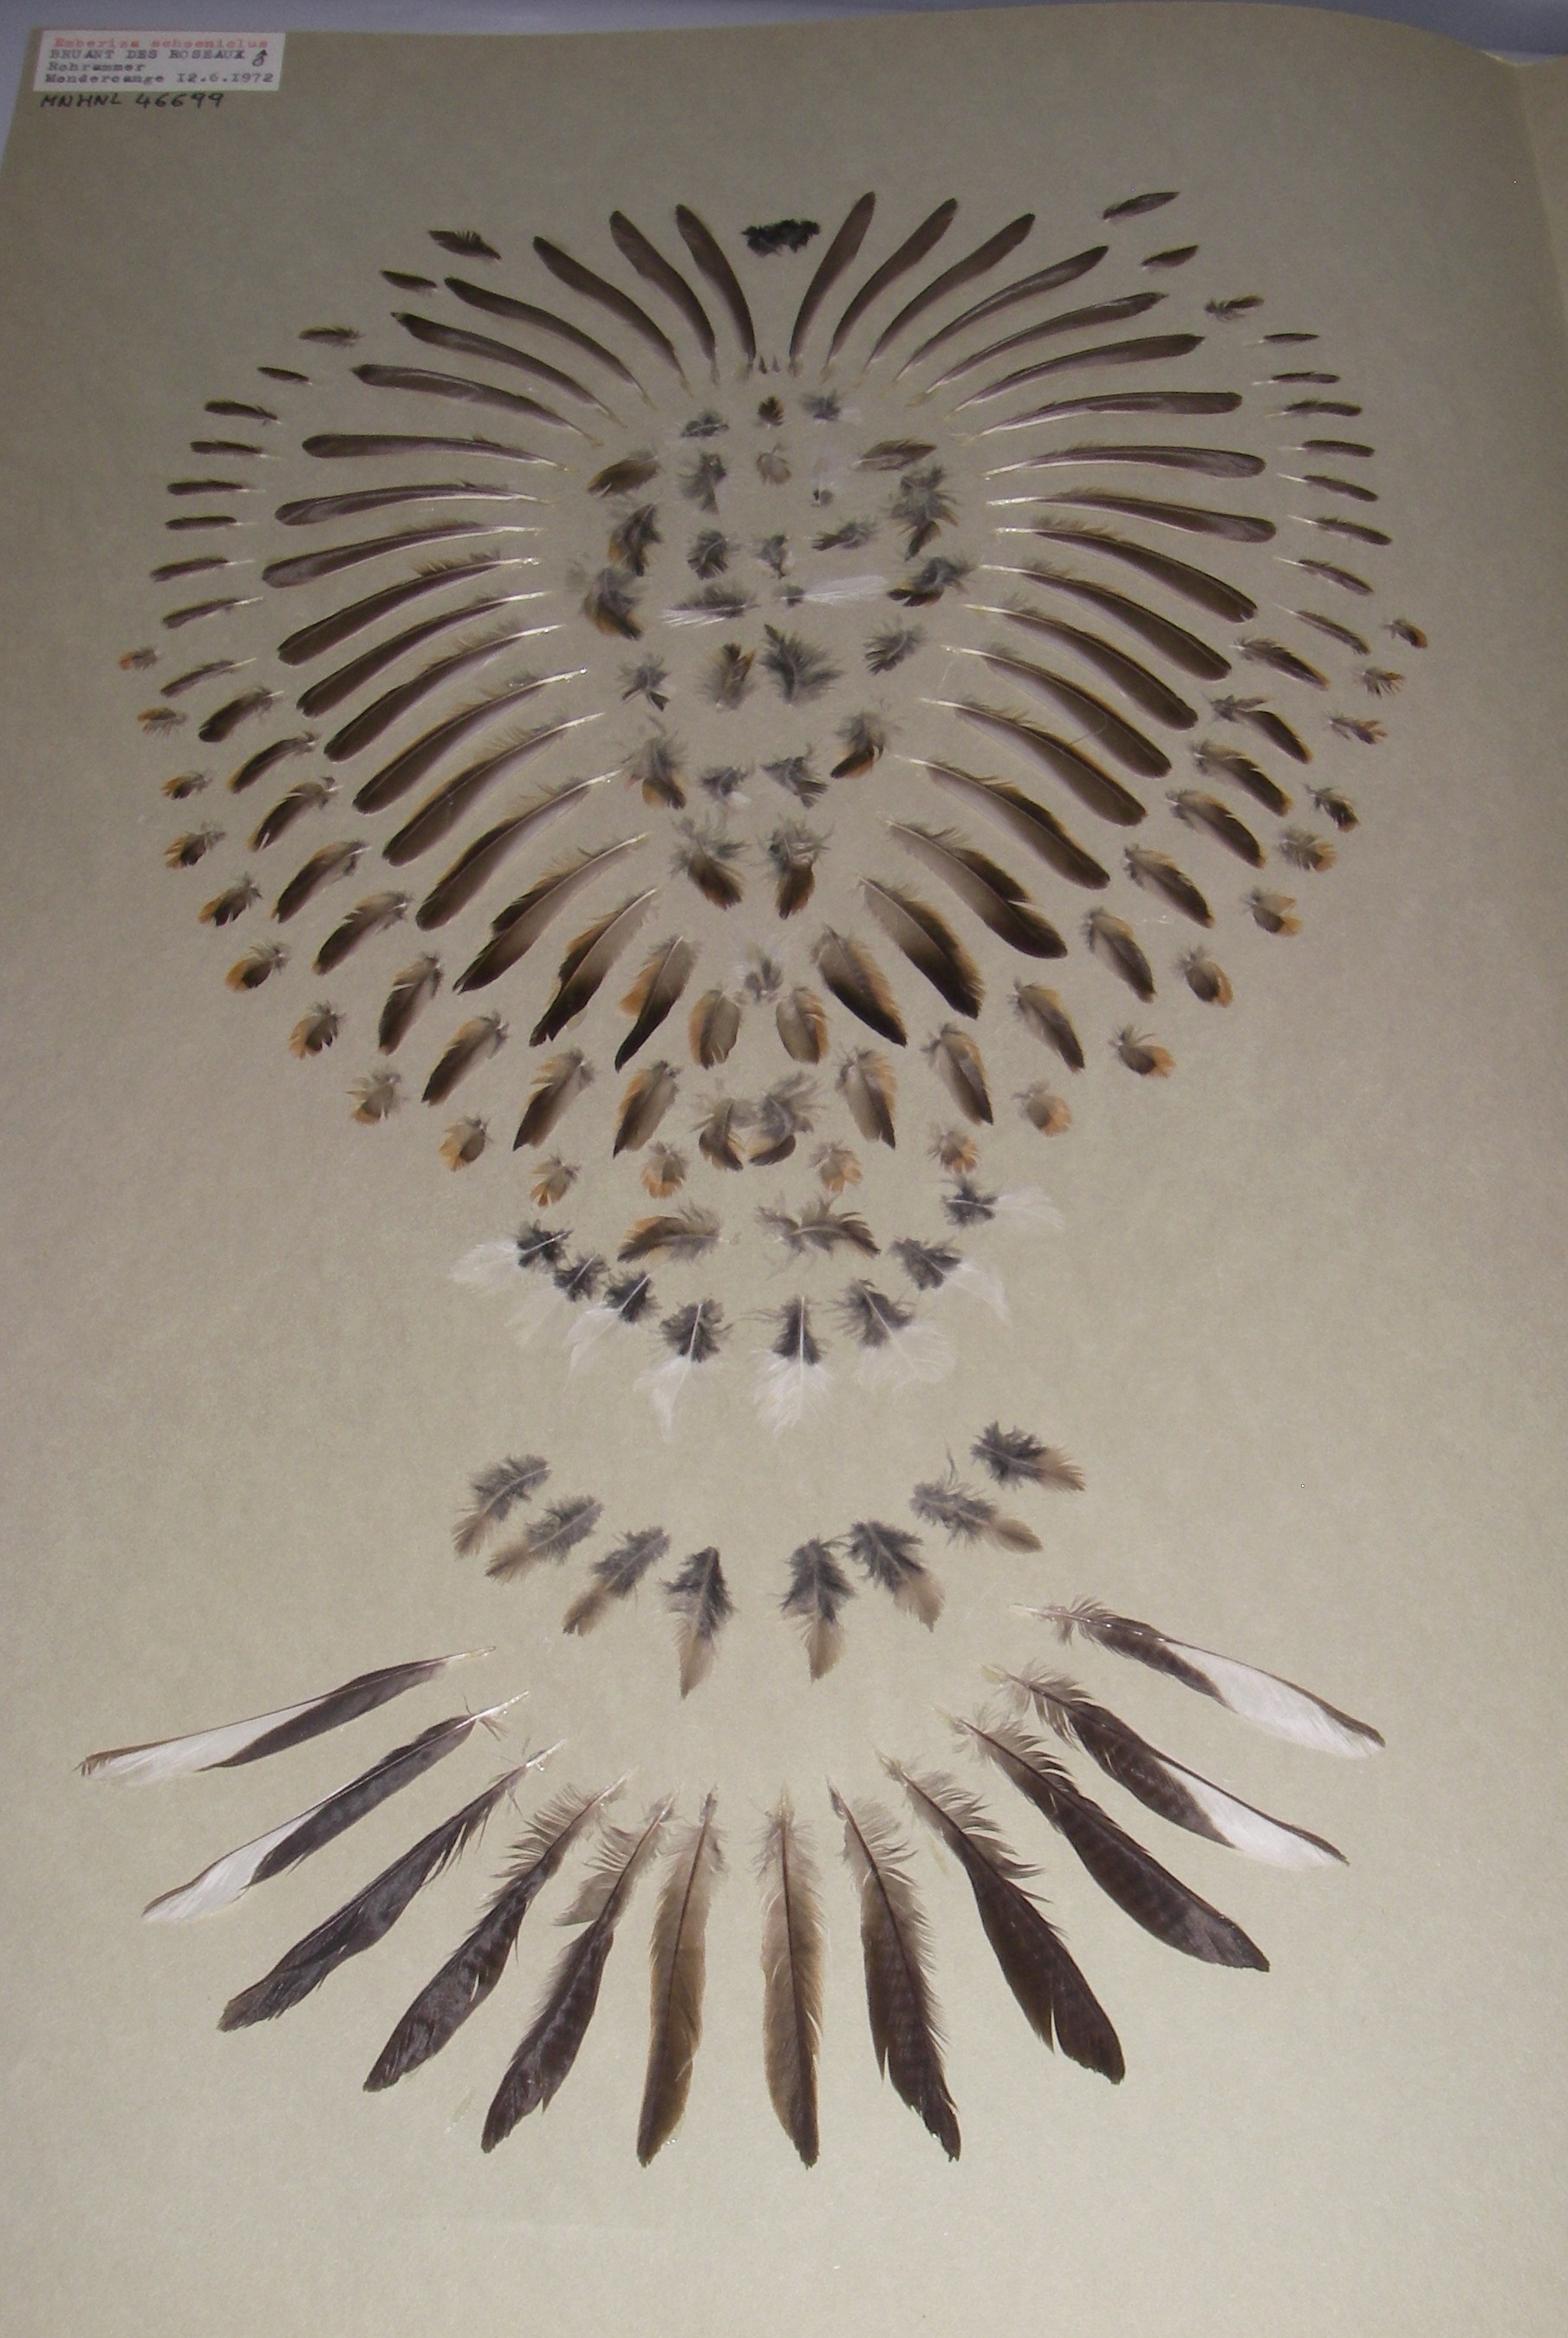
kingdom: Animalia
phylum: Chordata
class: Aves
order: Passeriformes
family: Emberizidae
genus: Emberiza
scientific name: Emberiza schoeniclus
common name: Reed bunting
